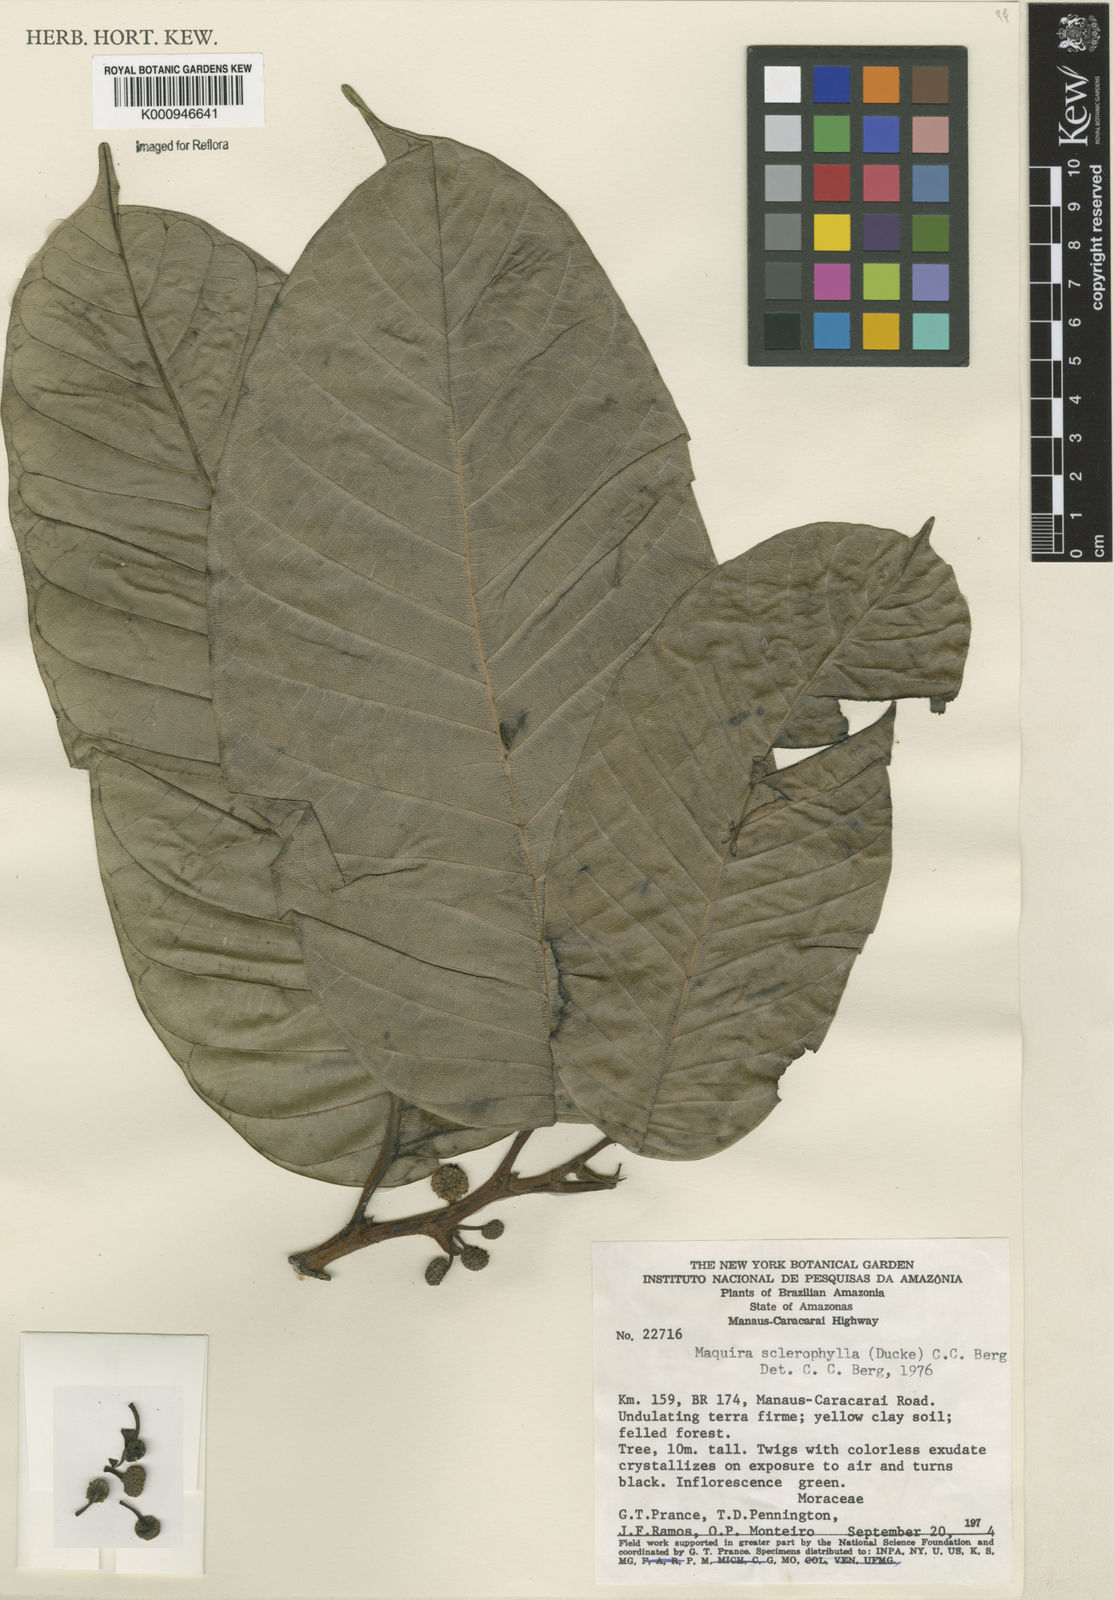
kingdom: Plantae
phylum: Tracheophyta
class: Magnoliopsida
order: Rosales
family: Moraceae
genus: Maquira
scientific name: Maquira sclerophylla
